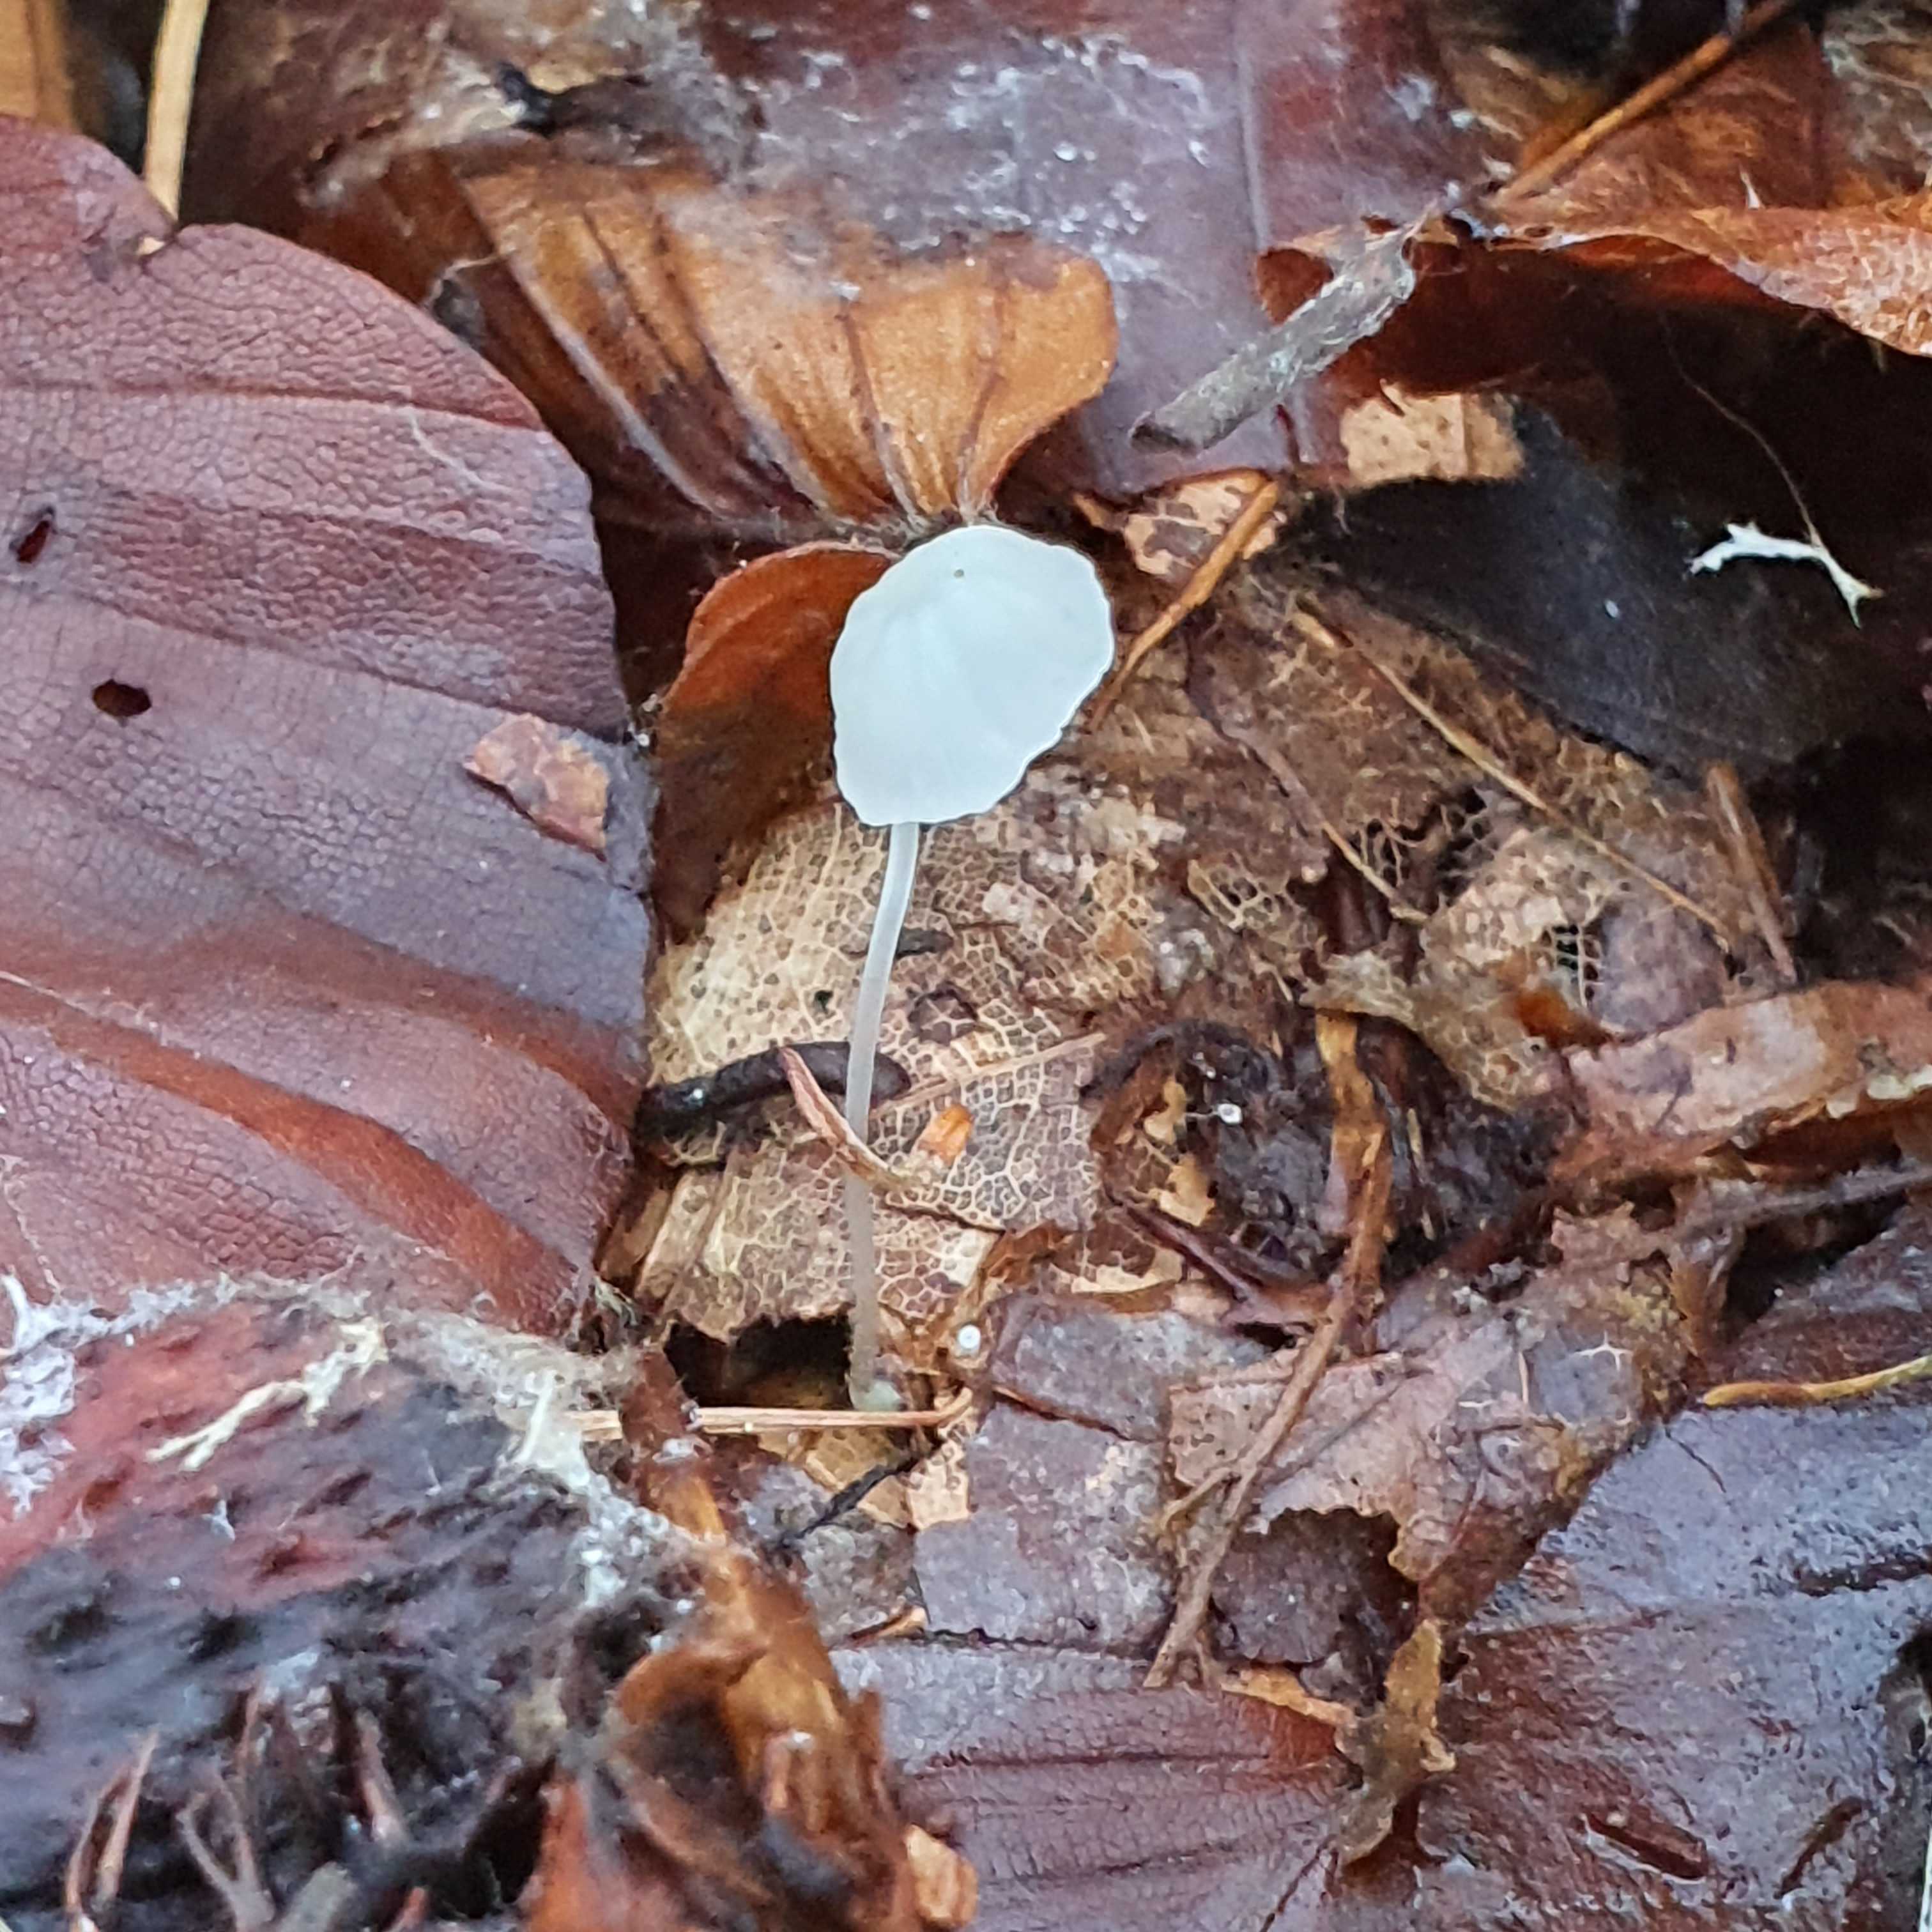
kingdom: Fungi
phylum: Basidiomycota
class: Agaricomycetes
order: Agaricales
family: Mycenaceae
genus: Atheniella
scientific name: Atheniella delectabilis
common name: nitrøs huesvamp
